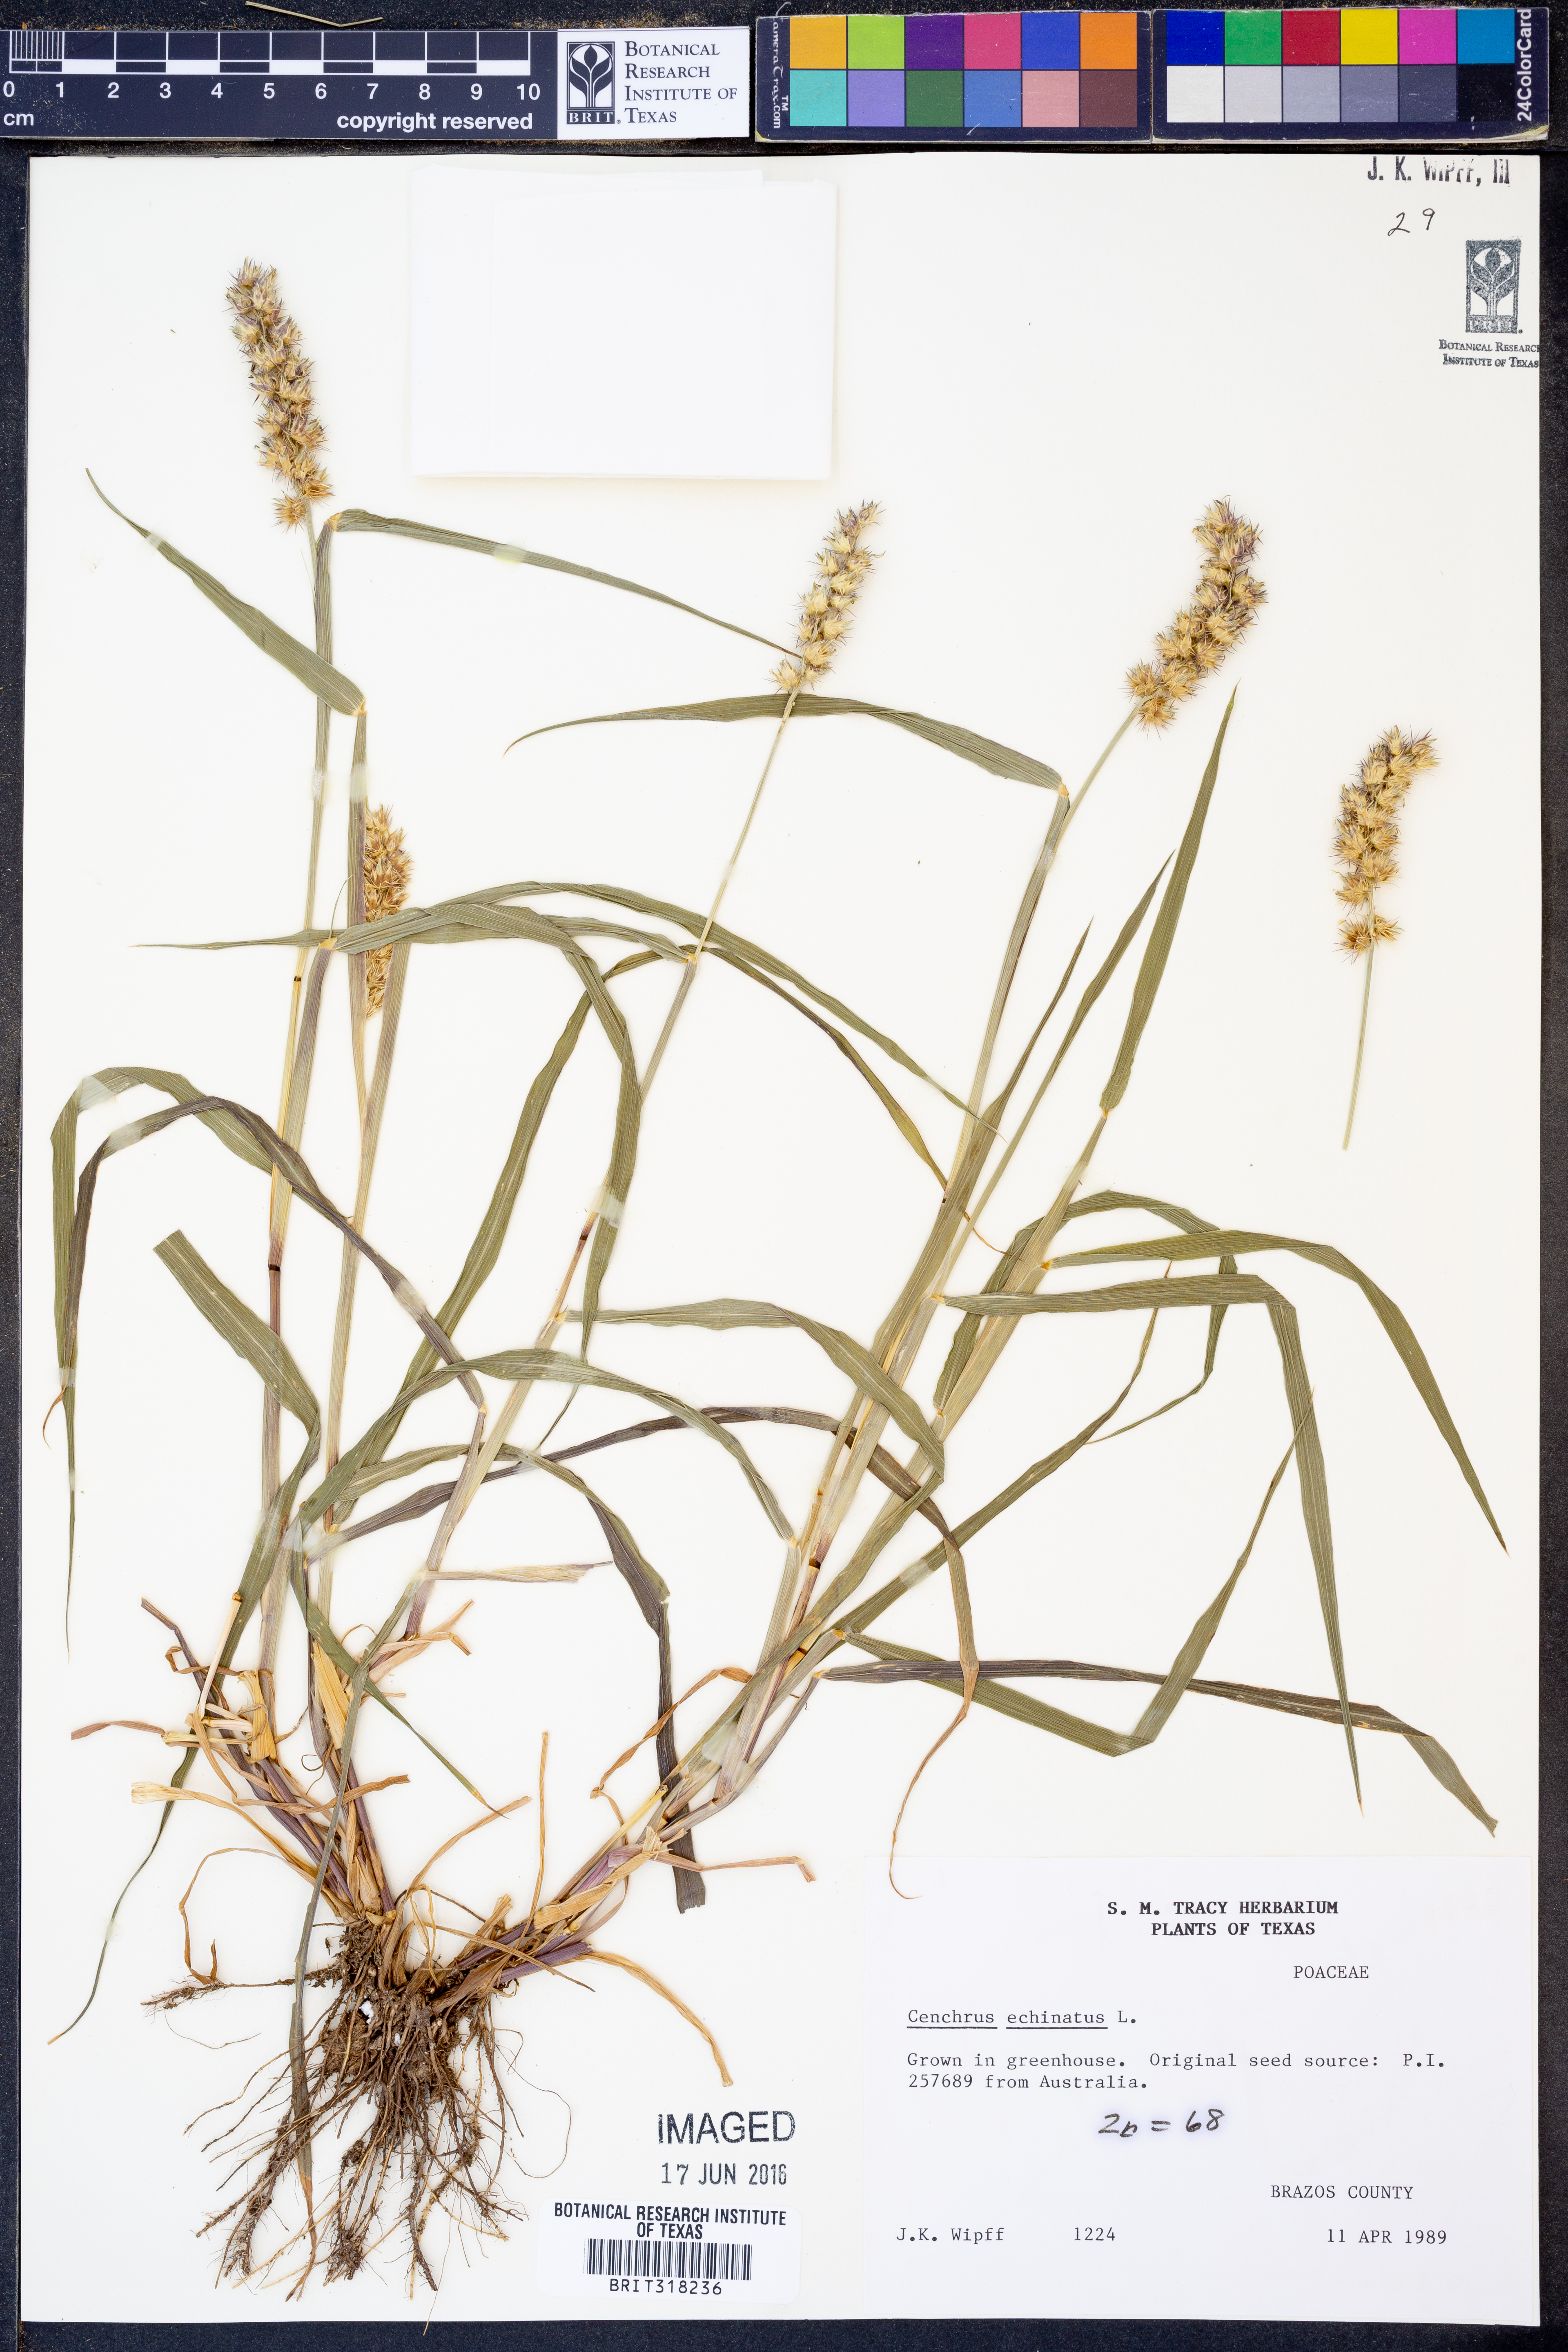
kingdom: Plantae
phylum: Tracheophyta
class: Liliopsida
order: Poales
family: Poaceae
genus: Cenchrus
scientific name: Cenchrus echinatus
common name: Southern sandbur
